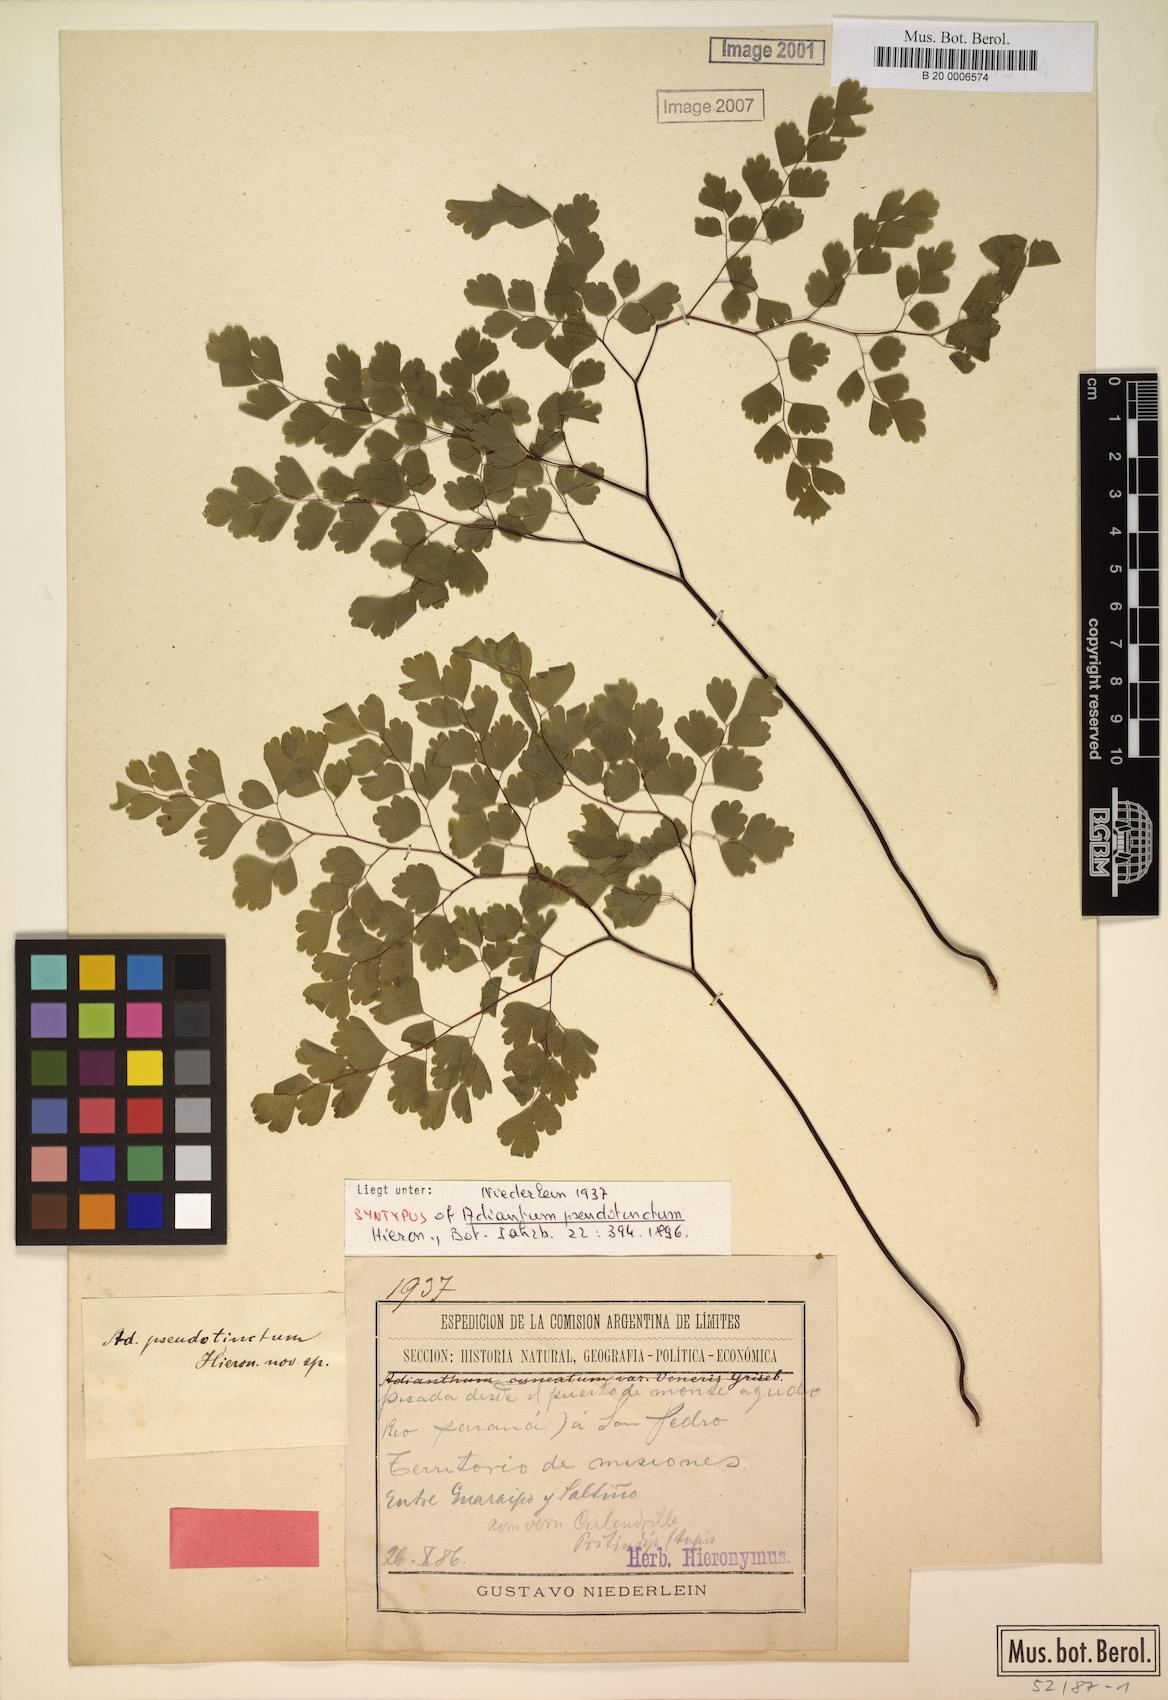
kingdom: Plantae
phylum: Tracheophyta
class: Polypodiopsida
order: Polypodiales
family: Pteridaceae
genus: Adiantum
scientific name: Adiantum pseudotinctum
